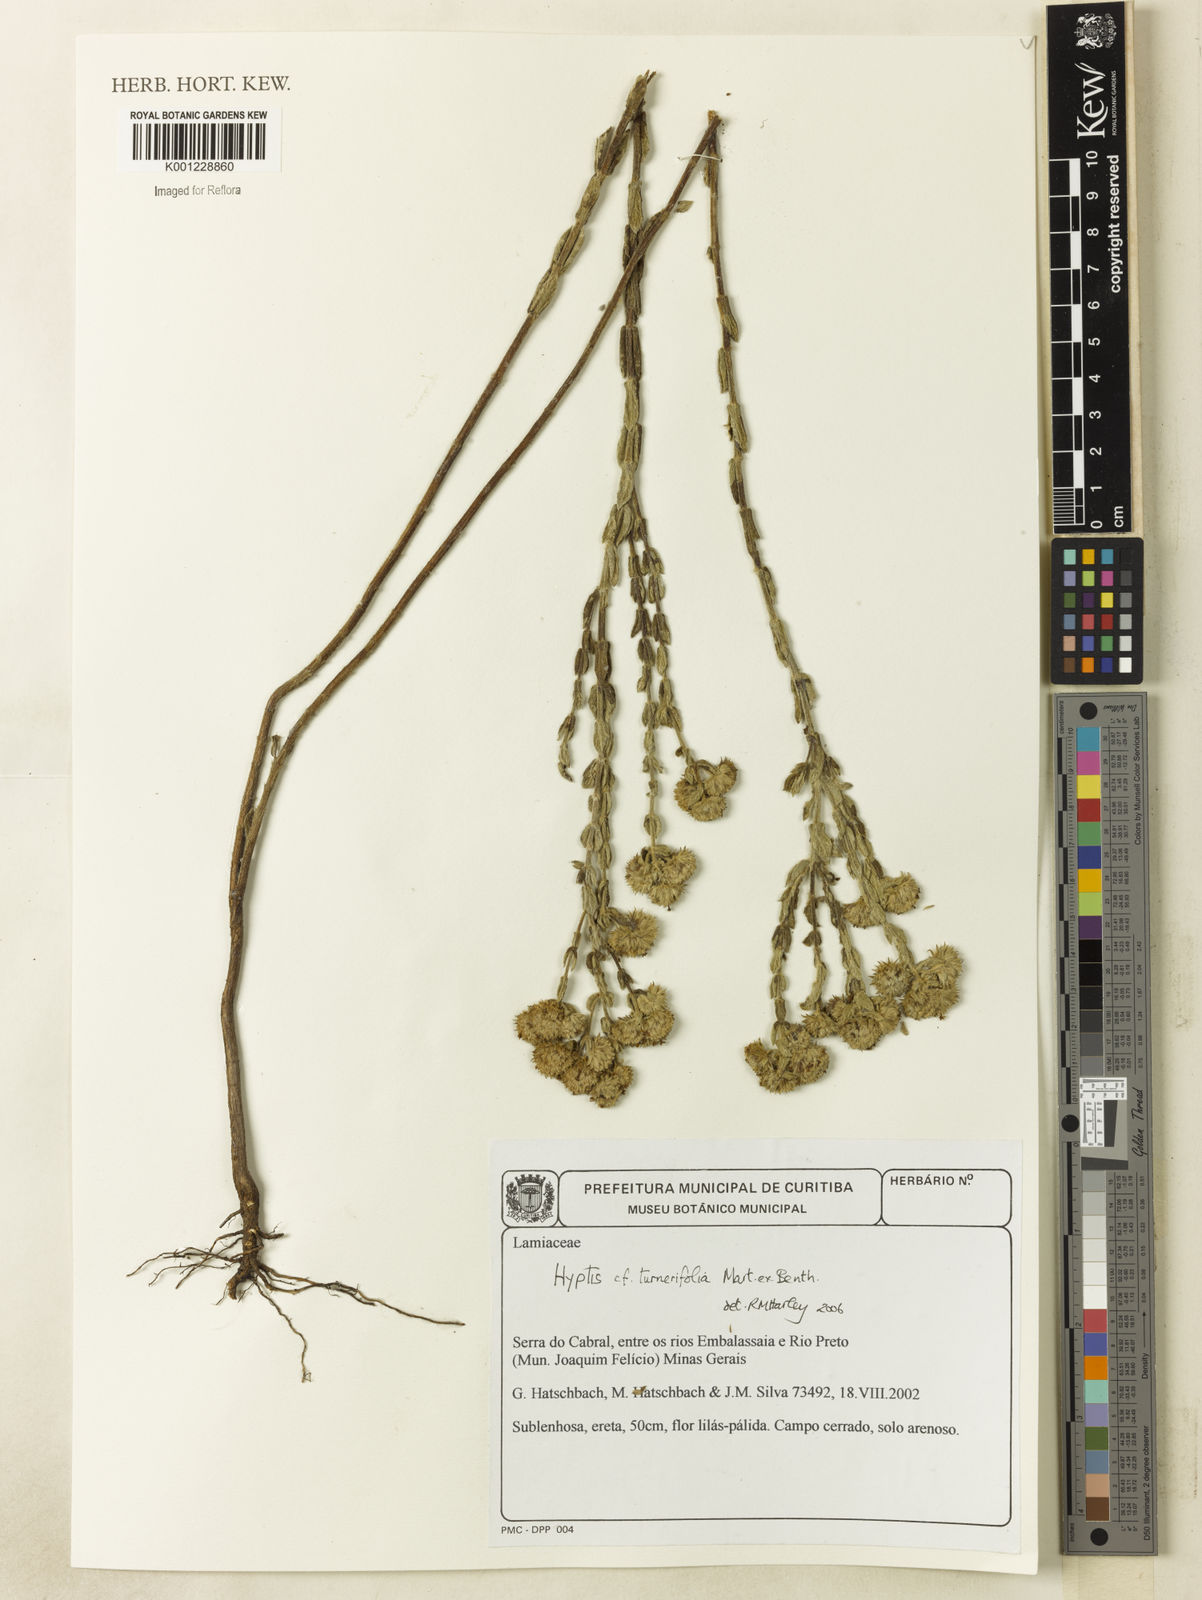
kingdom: Plantae
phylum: Tracheophyta
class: Magnoliopsida
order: Lamiales
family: Lamiaceae
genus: Hyptis
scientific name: Hyptis turnerifolia
